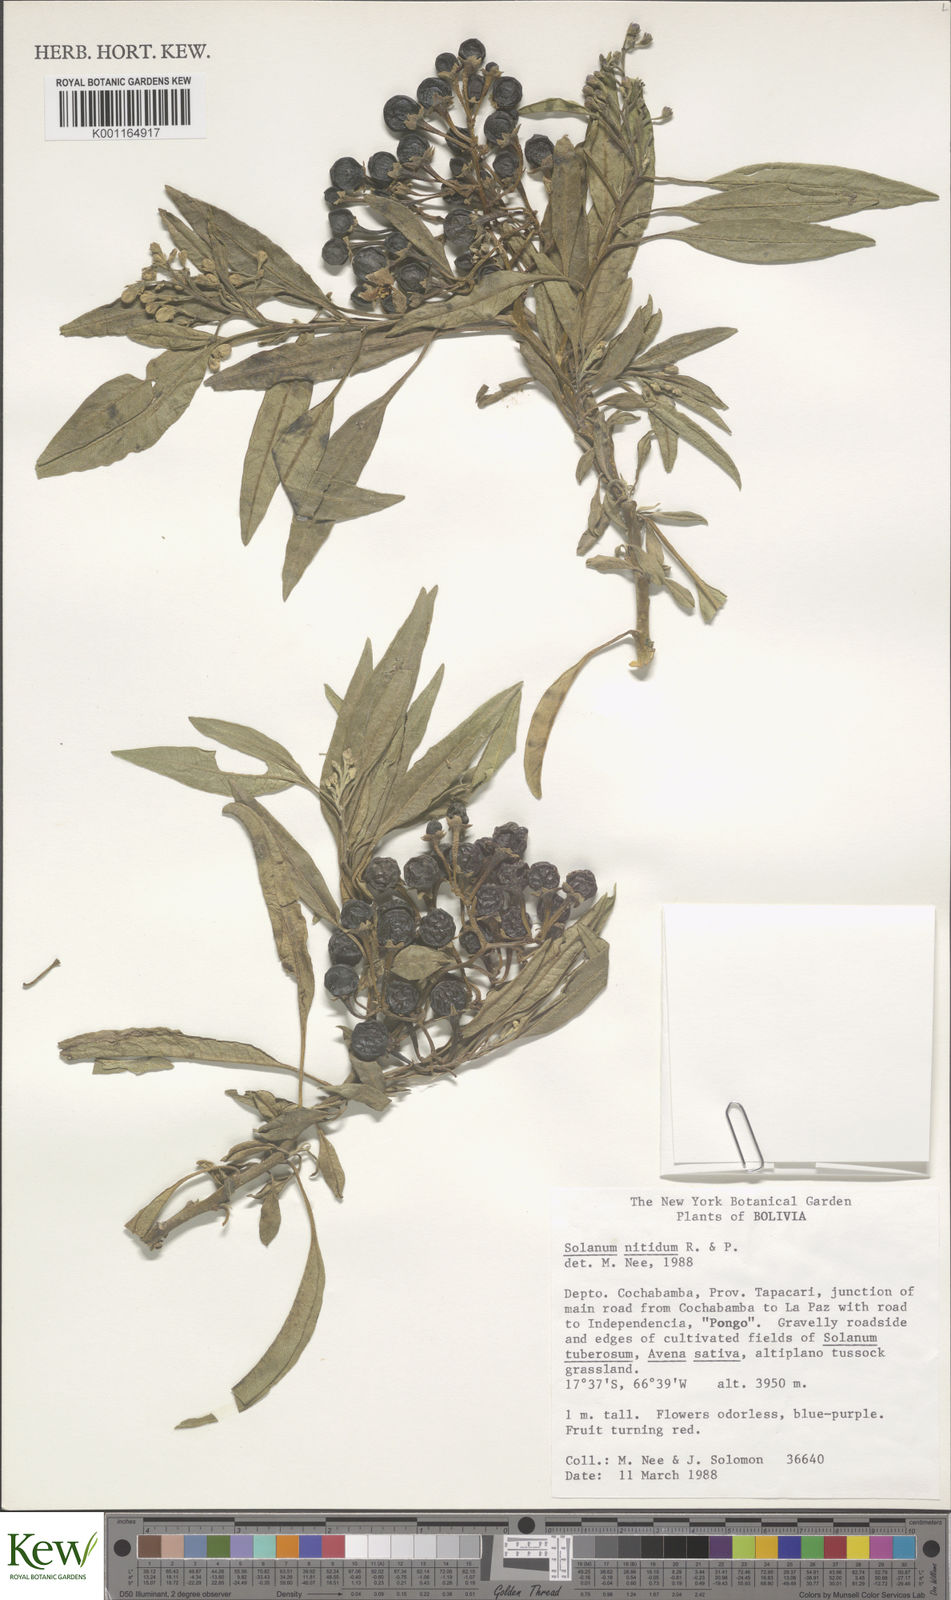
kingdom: Plantae
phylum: Tracheophyta
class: Magnoliopsida
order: Solanales
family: Solanaceae
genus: Solanum
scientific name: Solanum nitidum
